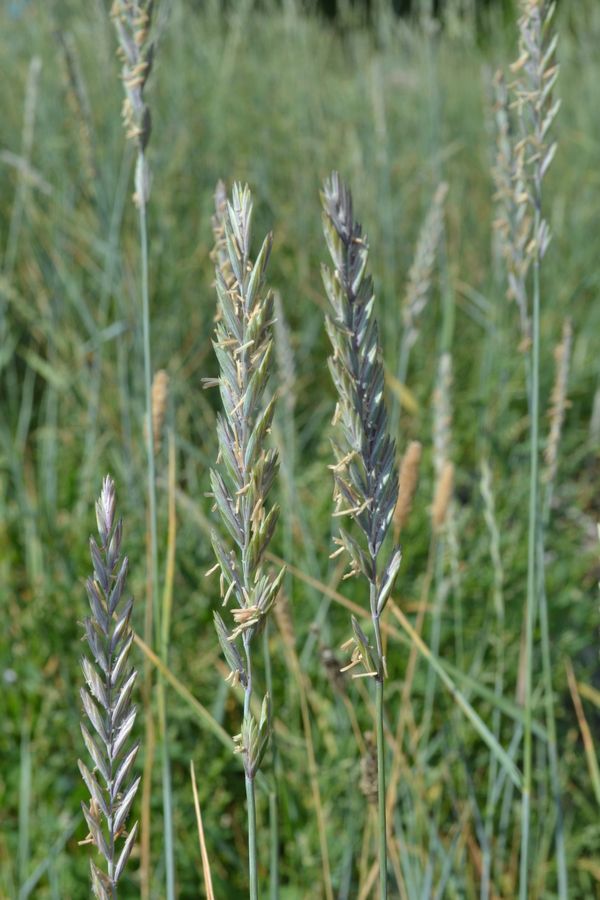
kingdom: Plantae
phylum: Tracheophyta
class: Liliopsida
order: Poales
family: Poaceae
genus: Elymus
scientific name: Elymus arenarius
